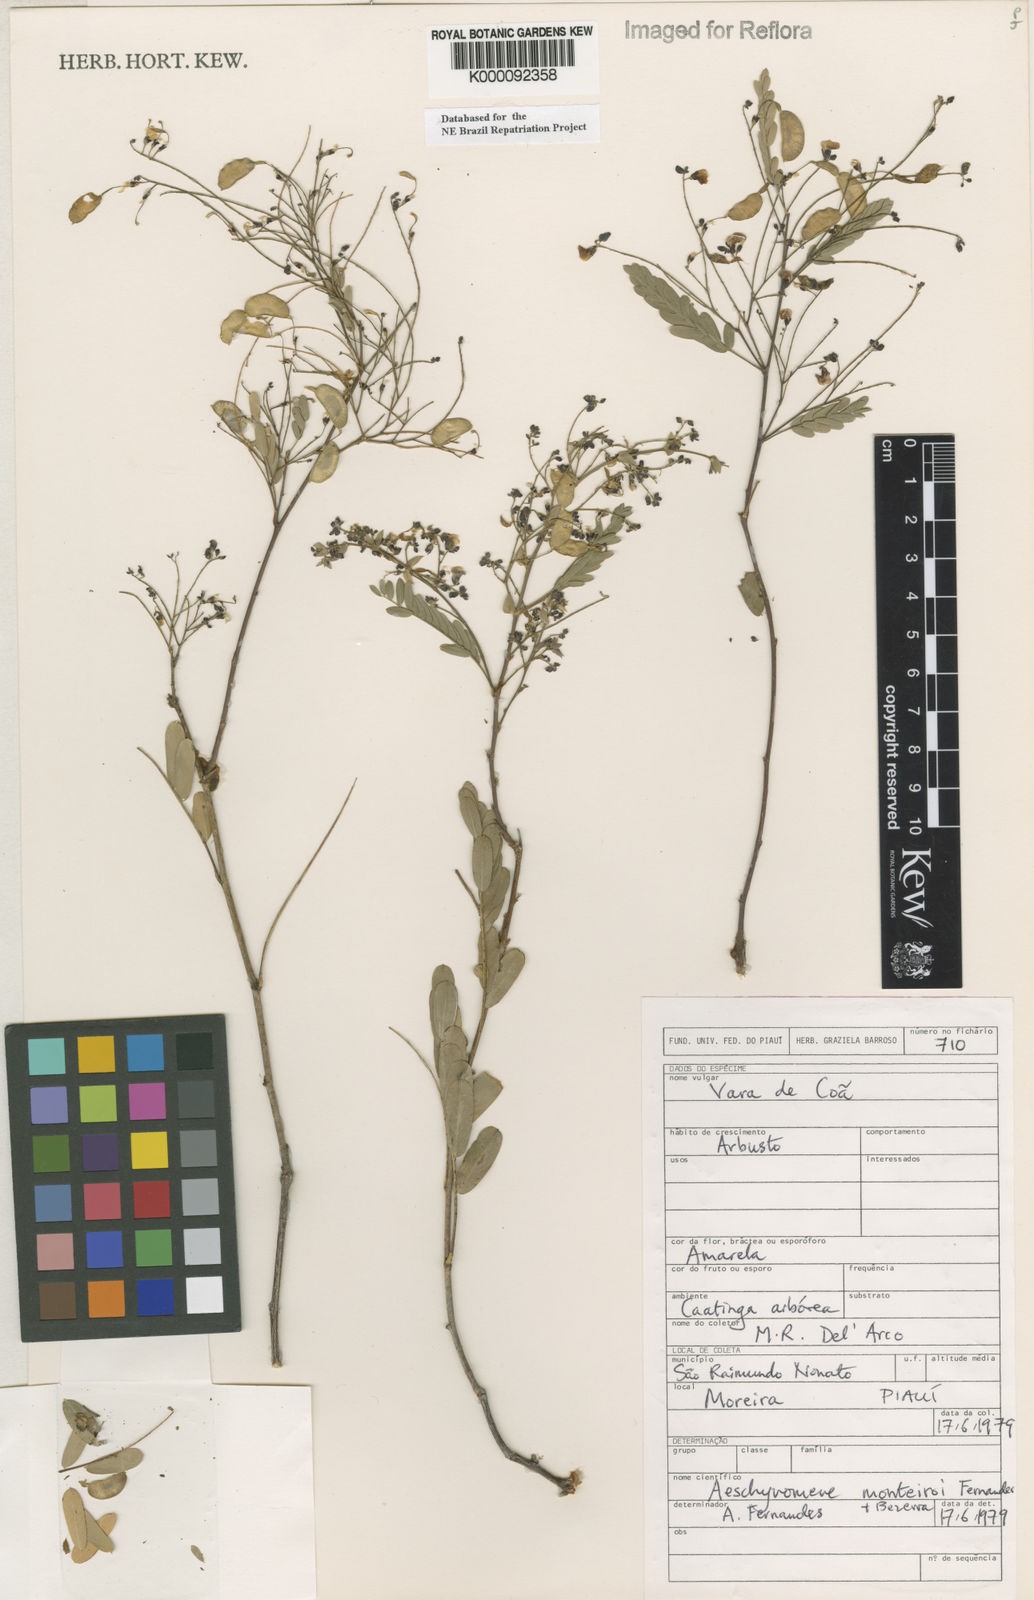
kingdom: Plantae
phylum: Tracheophyta
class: Magnoliopsida
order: Fabales
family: Fabaceae
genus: Ctenodon
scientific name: Ctenodon monteiroi
